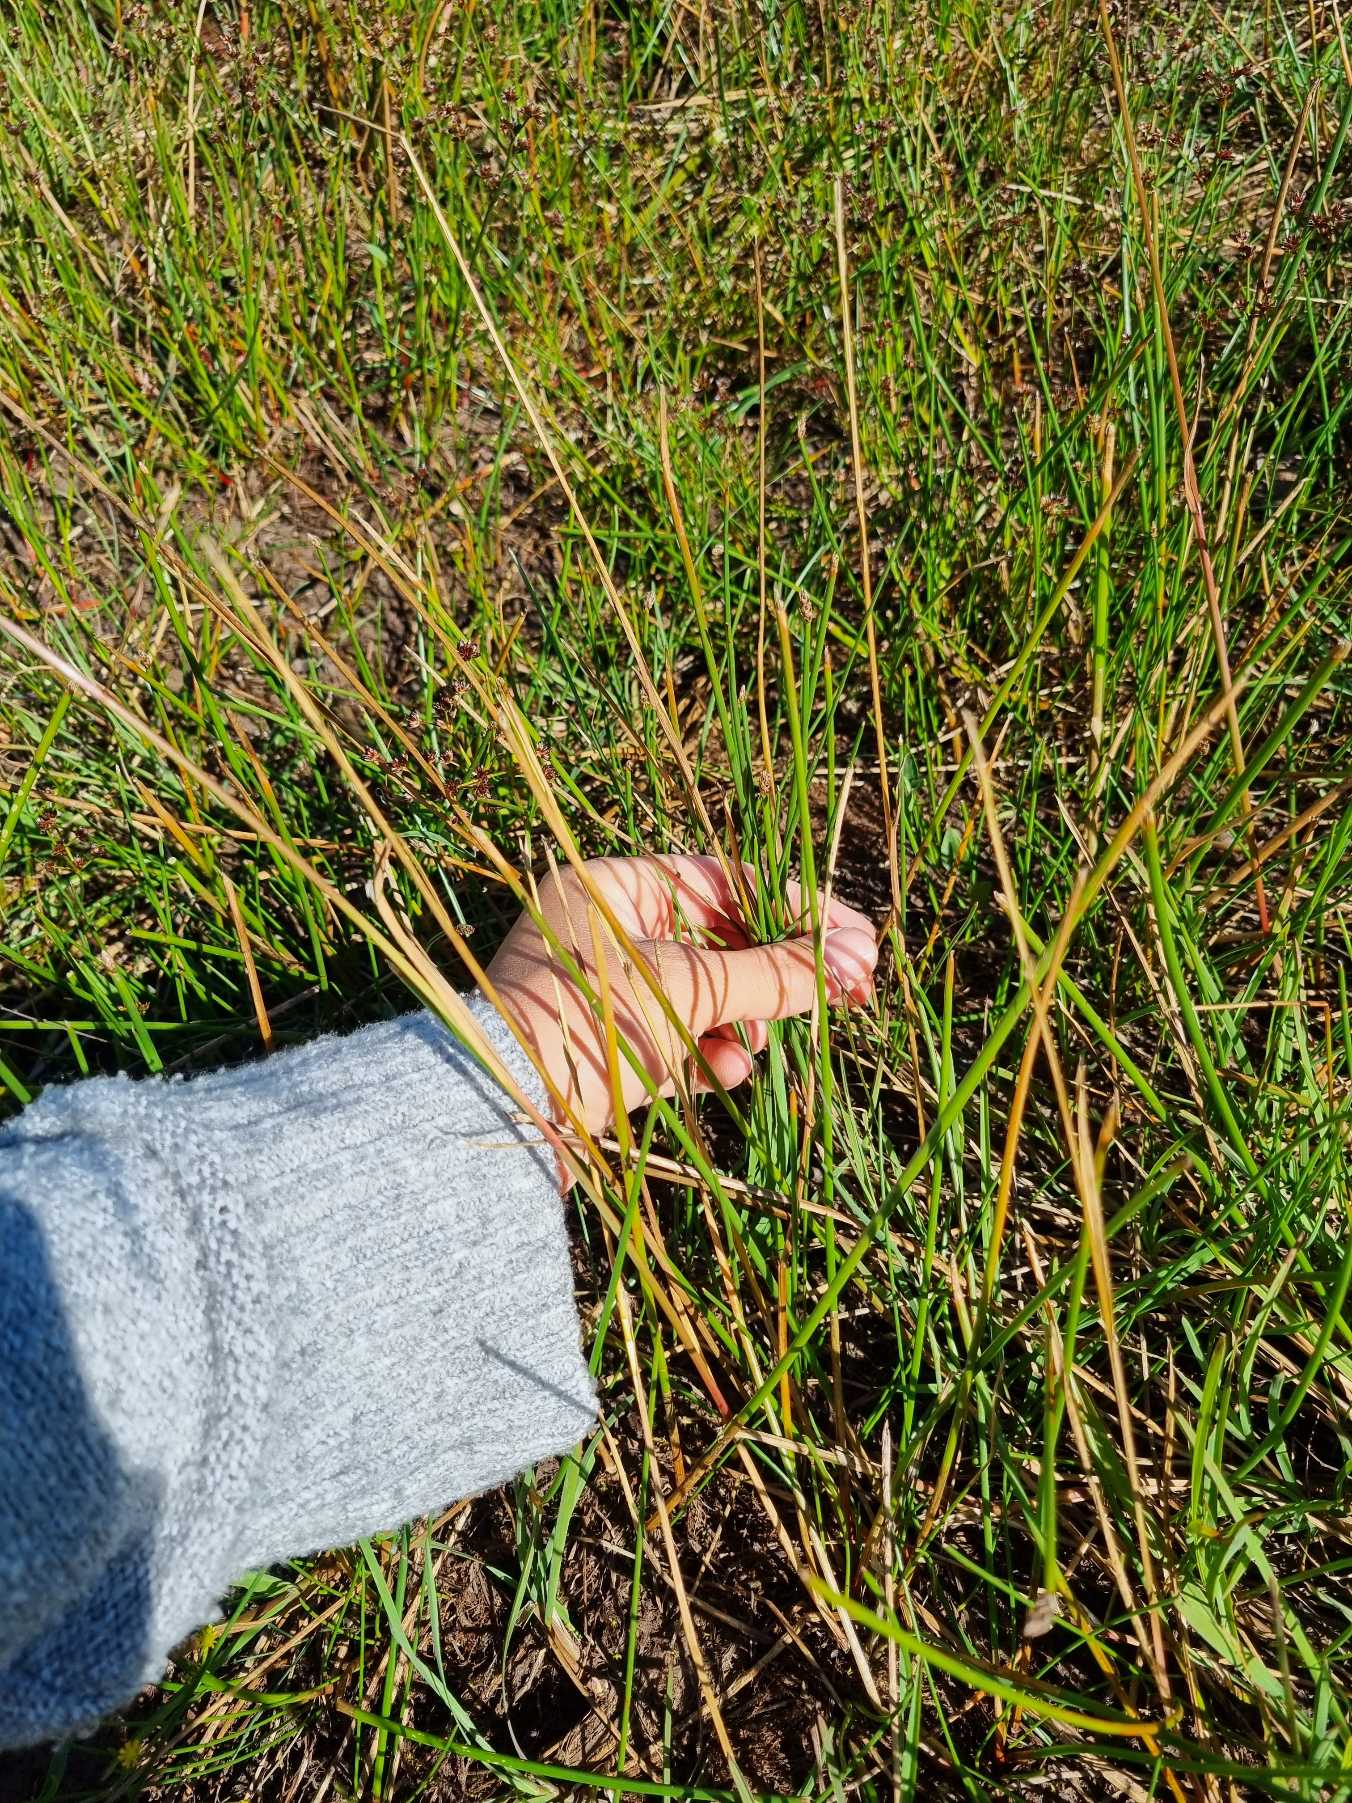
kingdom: Plantae
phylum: Tracheophyta
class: Liliopsida
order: Poales
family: Cyperaceae
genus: Eleocharis
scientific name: Eleocharis palustris
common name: Almindelig sumpstrå
